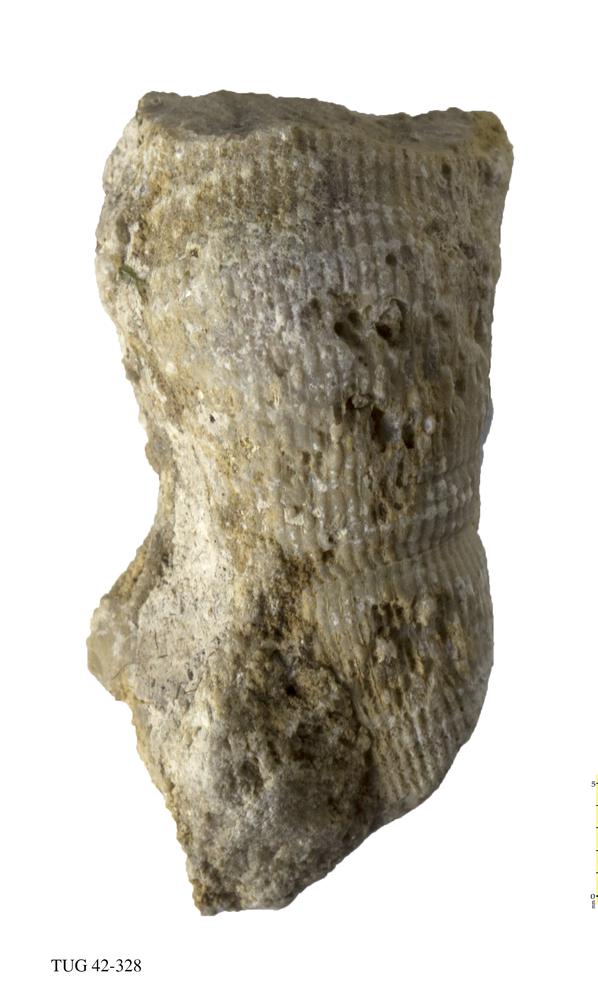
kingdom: Animalia
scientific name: Animalia
